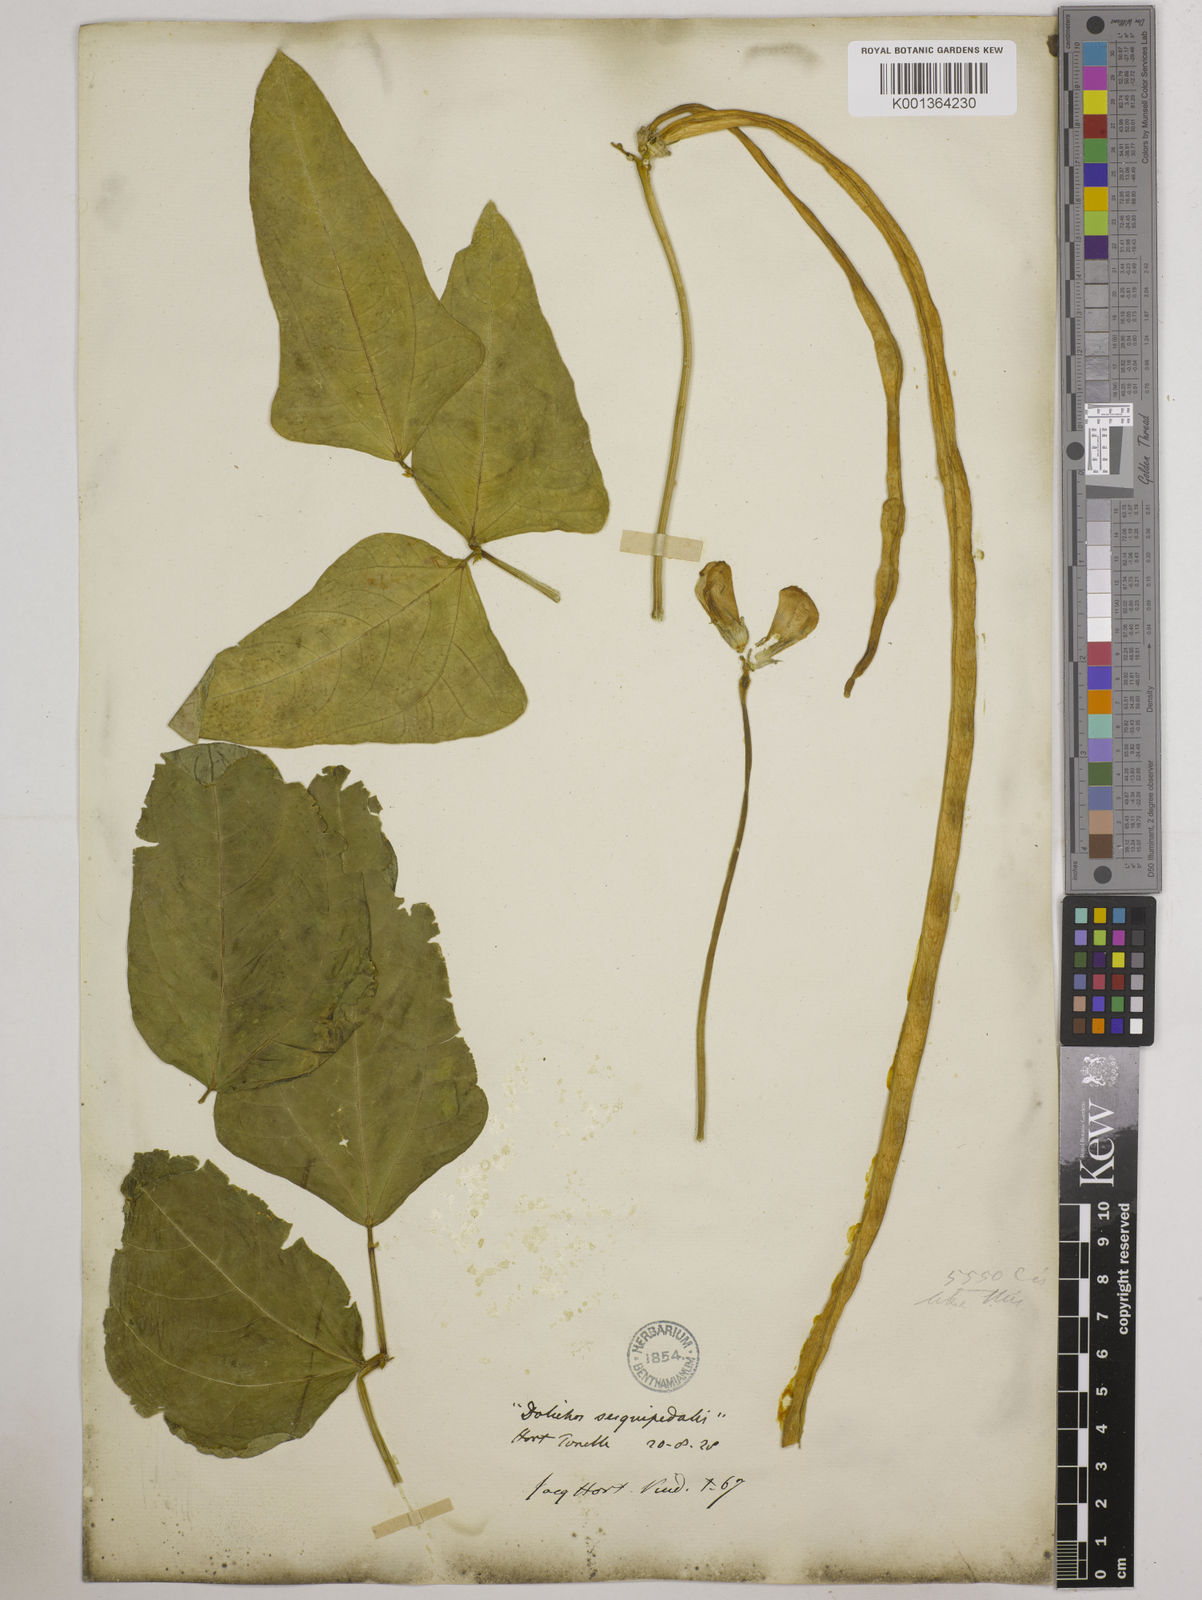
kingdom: Plantae
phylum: Tracheophyta
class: Magnoliopsida
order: Fabales
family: Fabaceae
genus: Vigna
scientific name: Vigna unguiculata
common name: Cowpea
